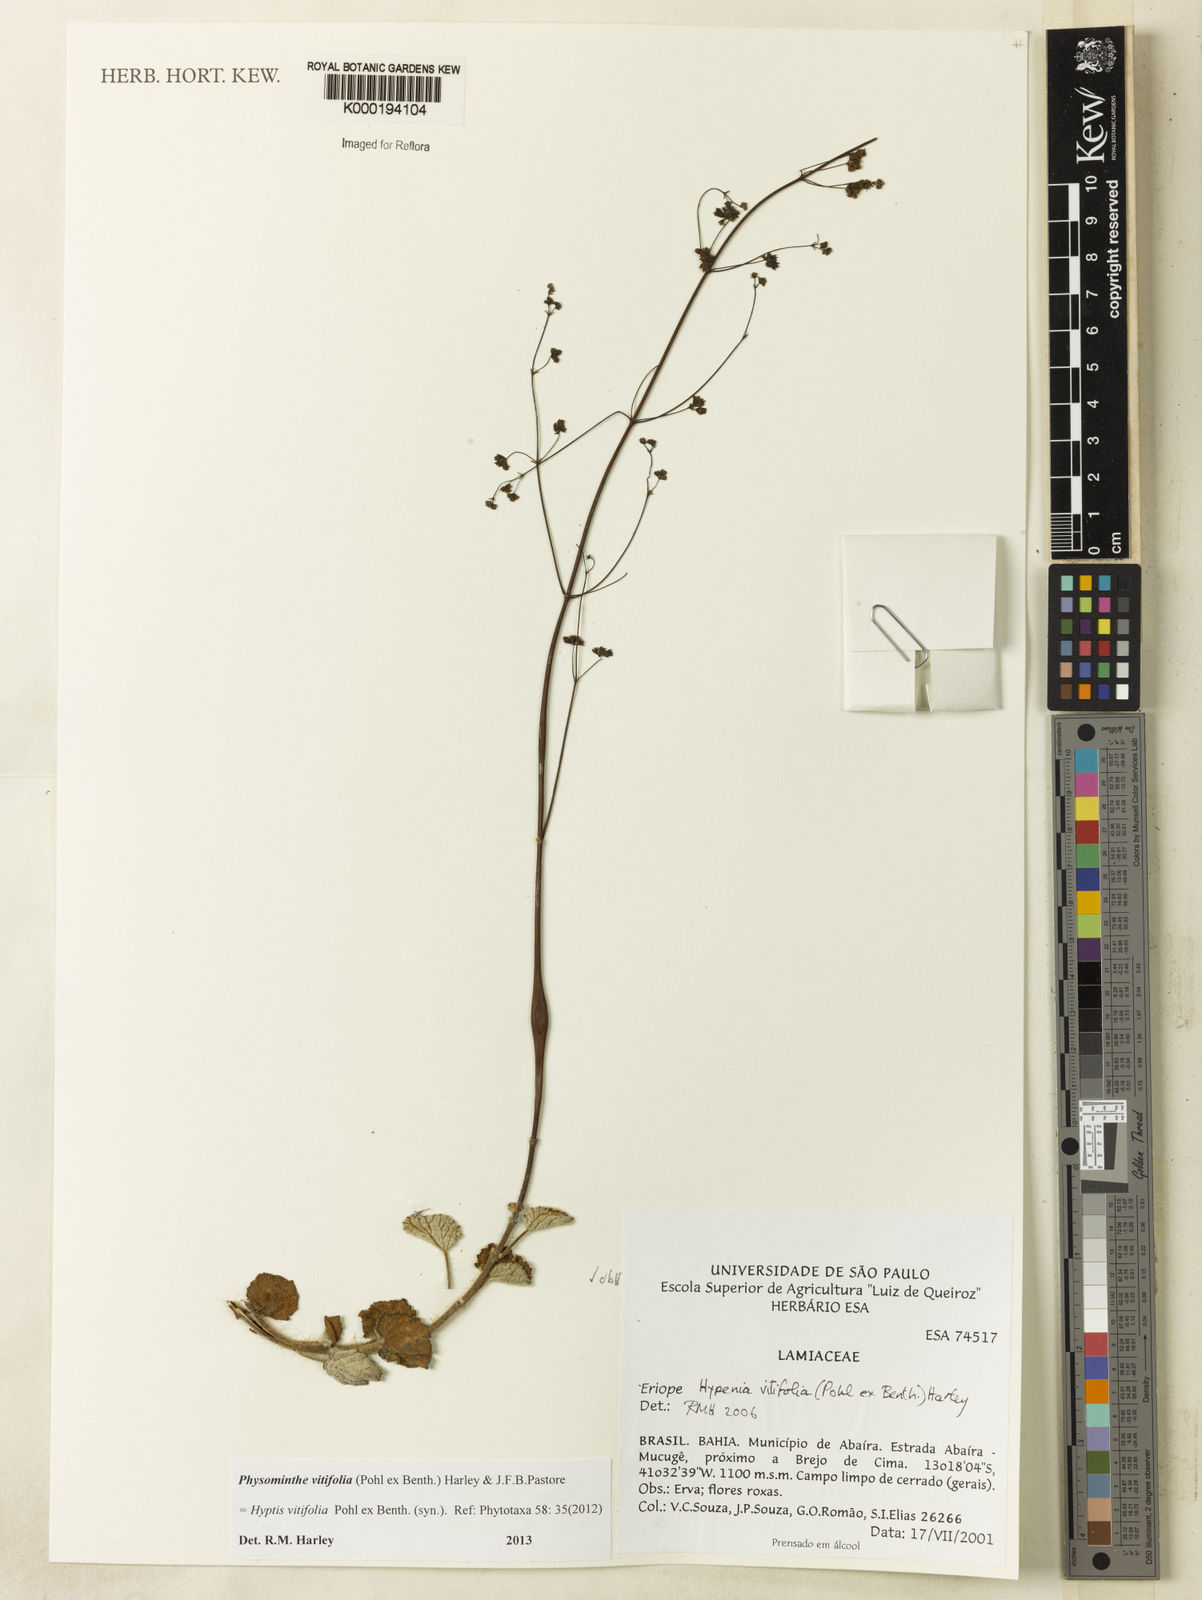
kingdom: Plantae
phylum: Tracheophyta
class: Magnoliopsida
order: Lamiales
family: Lamiaceae
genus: Physominthe
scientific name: Physominthe vitifolia
